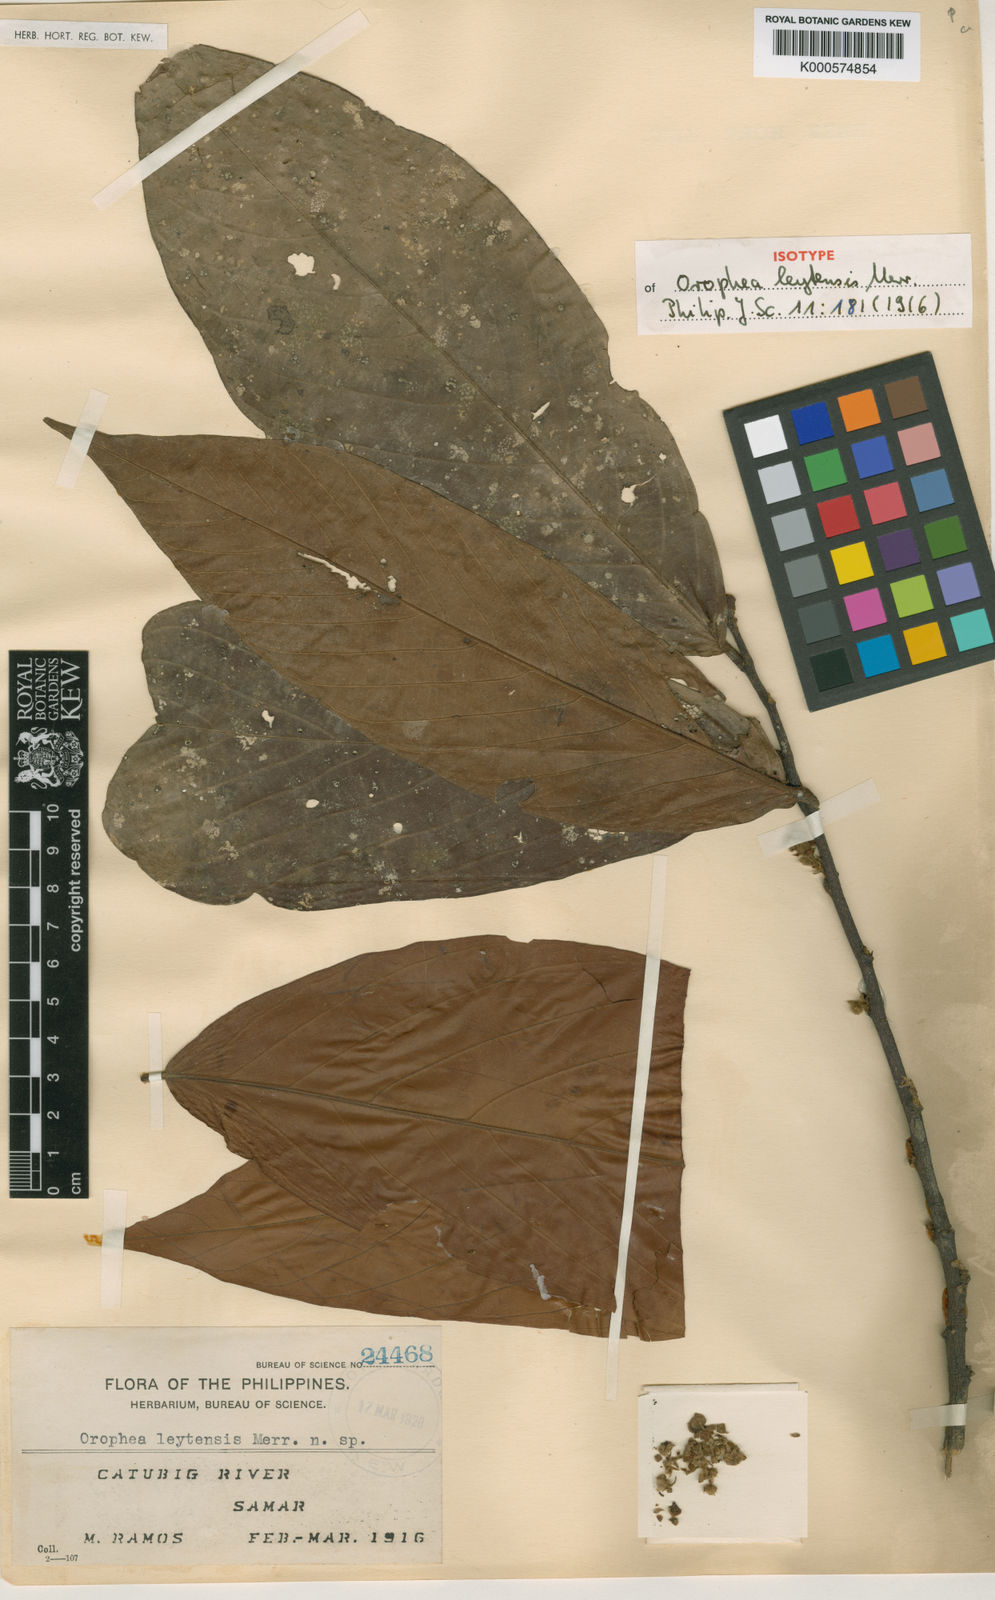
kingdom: Plantae
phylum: Tracheophyta
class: Magnoliopsida
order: Magnoliales
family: Annonaceae
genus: Orophea
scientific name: Orophea leytensis
